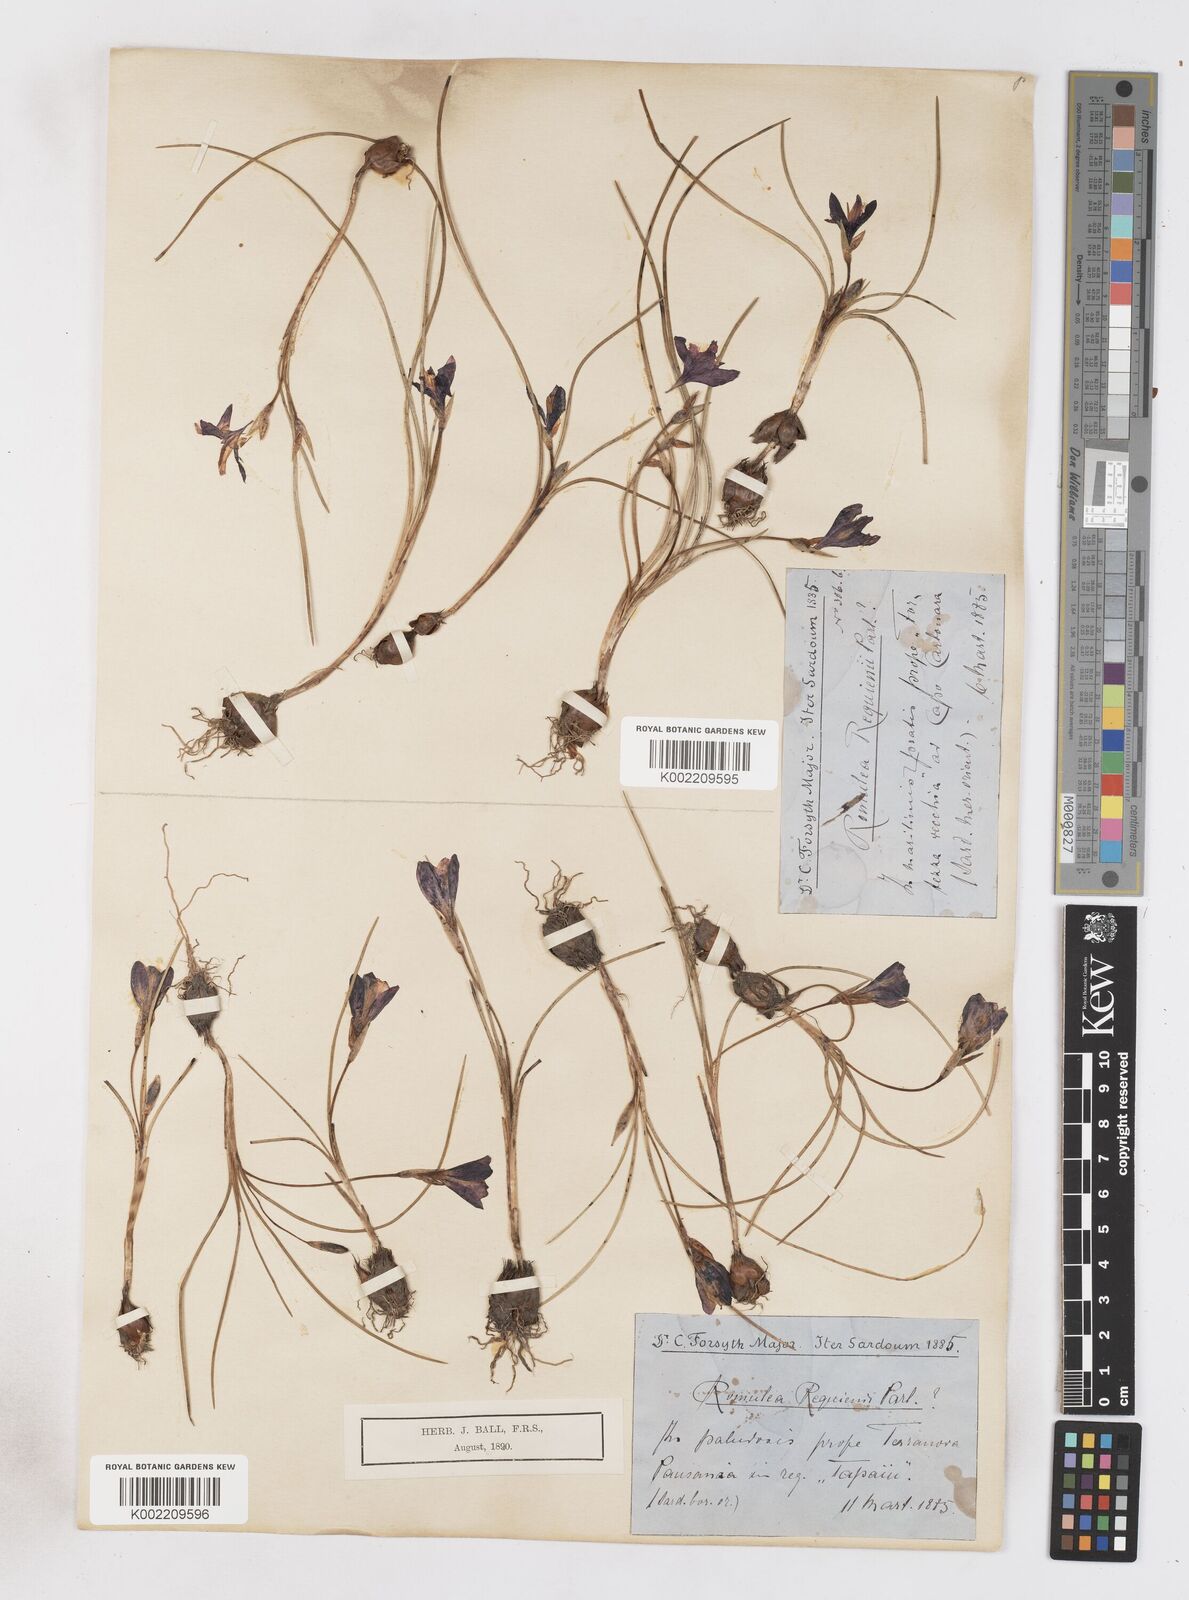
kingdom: Plantae
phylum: Tracheophyta
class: Liliopsida
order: Asparagales
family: Iridaceae
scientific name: Iridaceae
